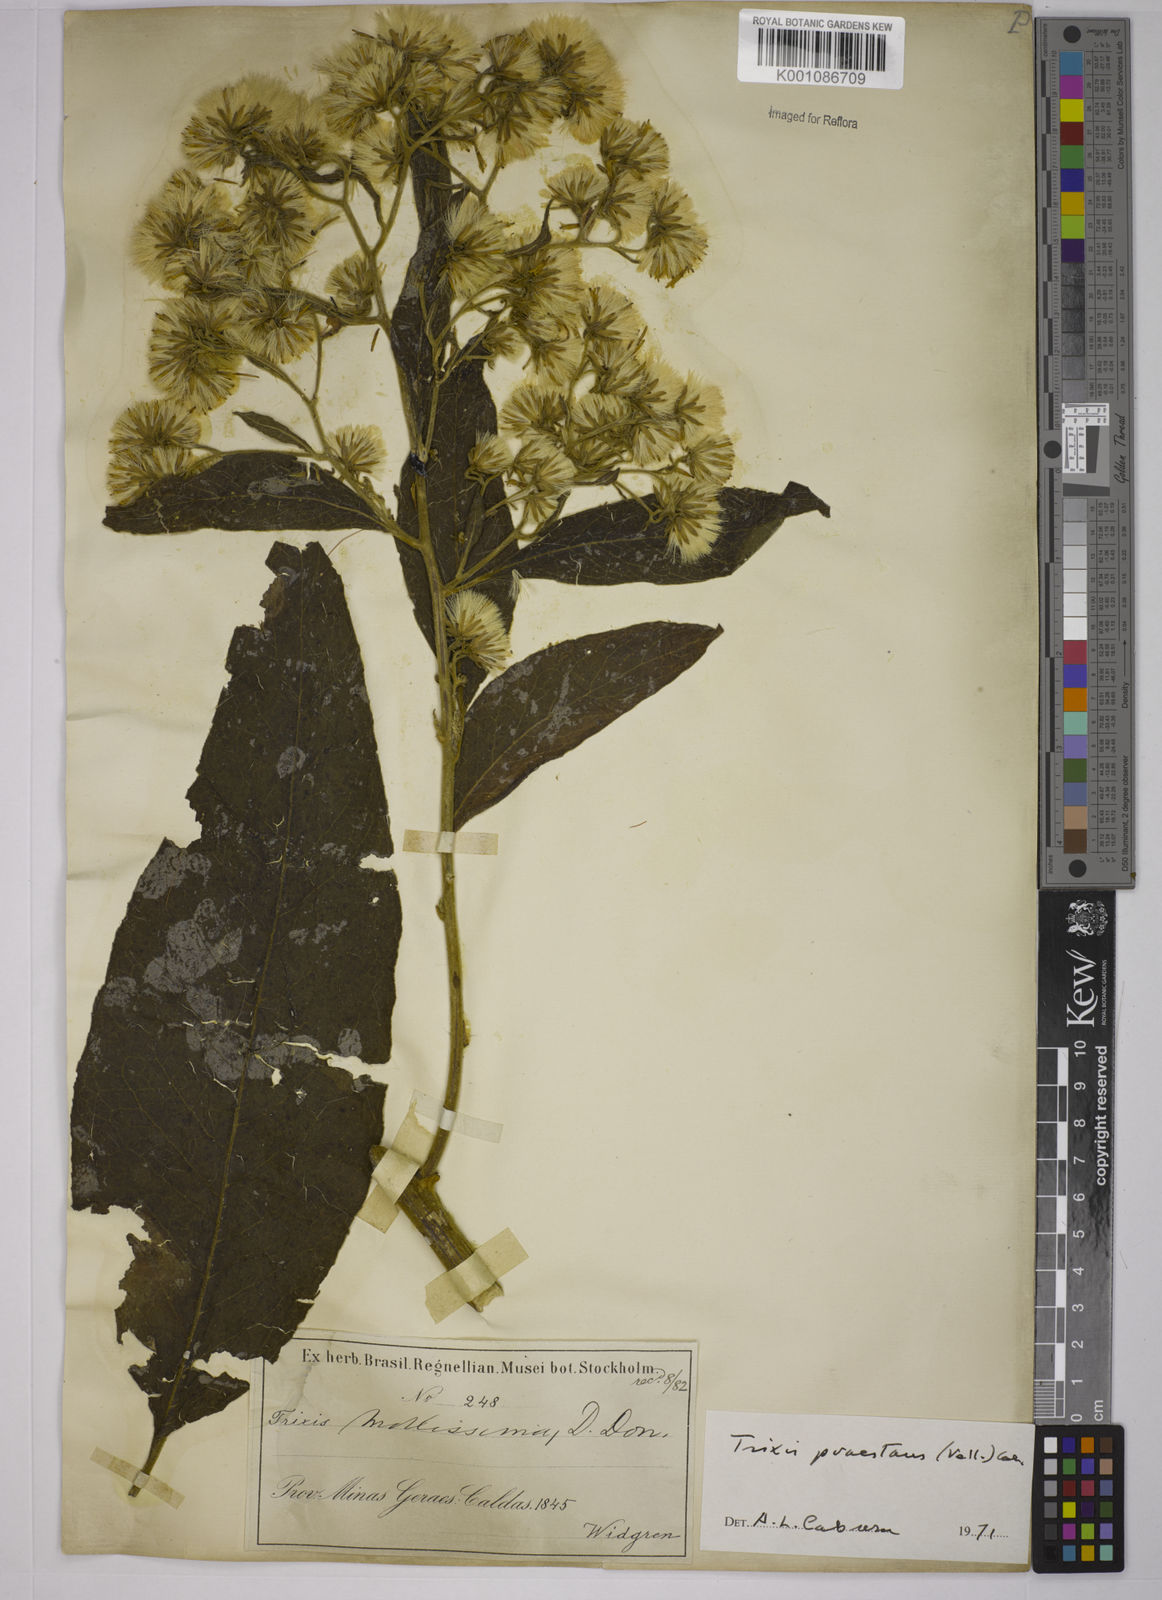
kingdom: Plantae
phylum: Tracheophyta
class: Magnoliopsida
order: Asterales
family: Asteraceae
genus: Trixis
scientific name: Trixis praestans
